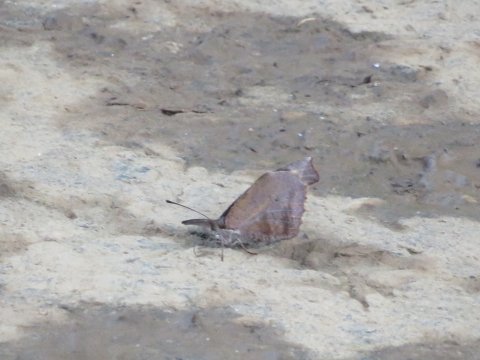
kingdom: Animalia
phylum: Arthropoda
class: Insecta
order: Lepidoptera
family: Nymphalidae
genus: Libytheana
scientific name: Libytheana carinenta
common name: American Snout
